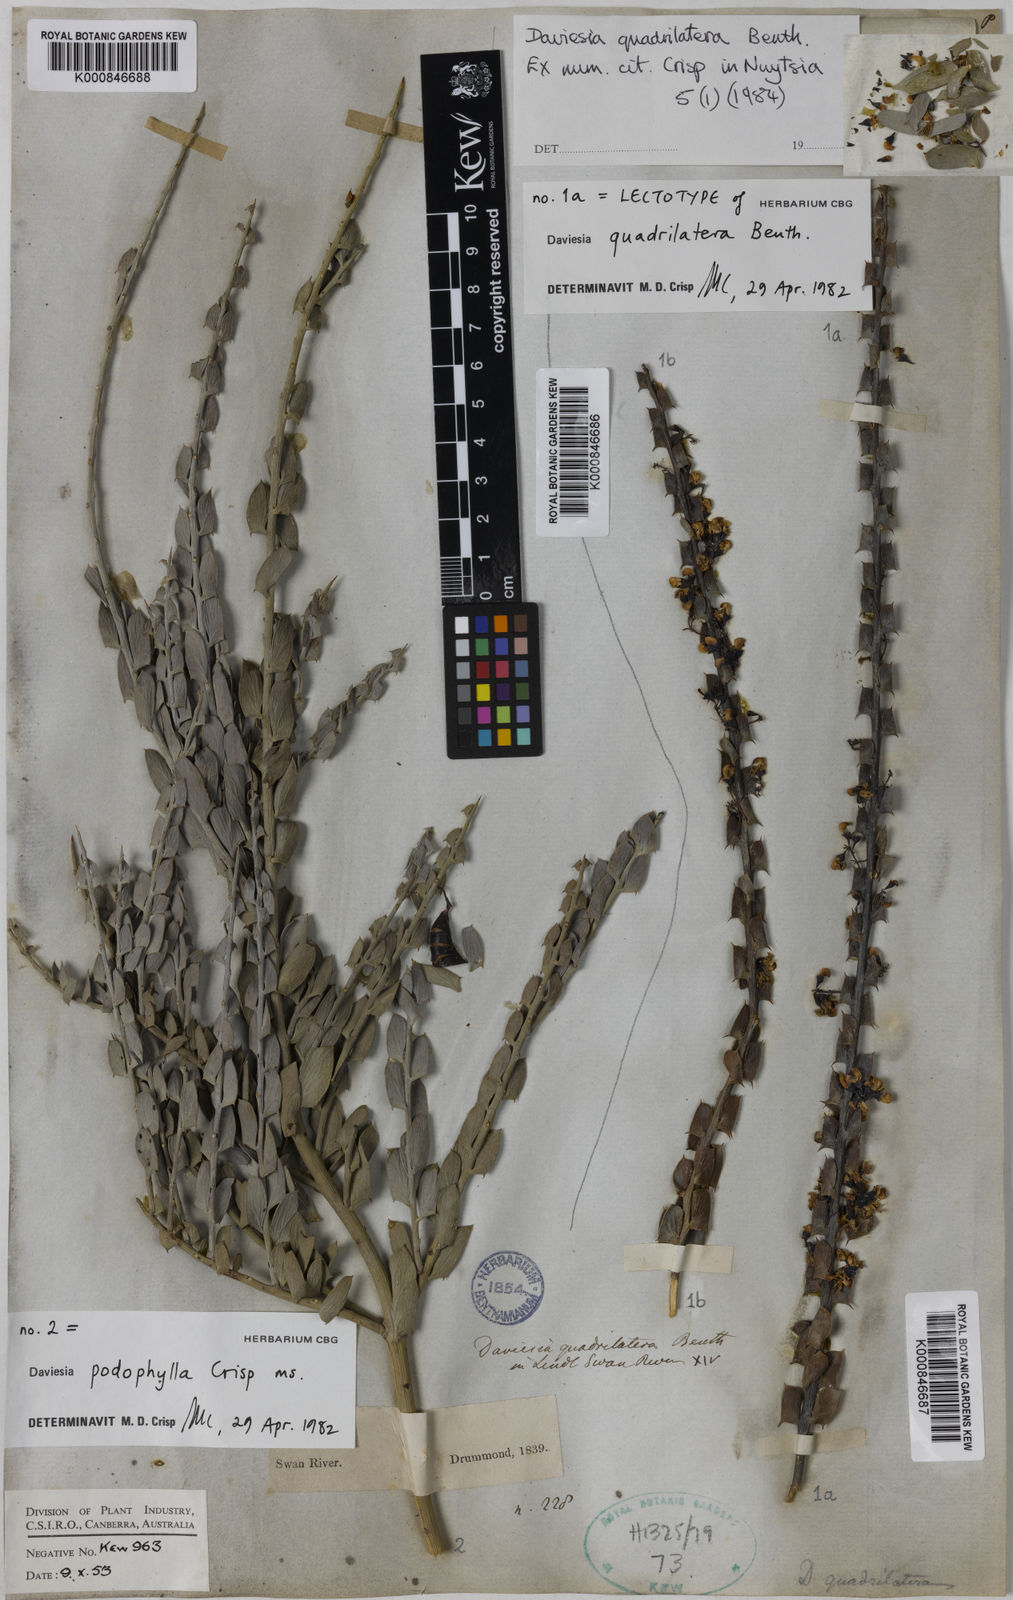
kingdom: Plantae
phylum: Tracheophyta
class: Magnoliopsida
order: Fabales
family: Fabaceae
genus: Daviesia
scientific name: Daviesia podophylla
